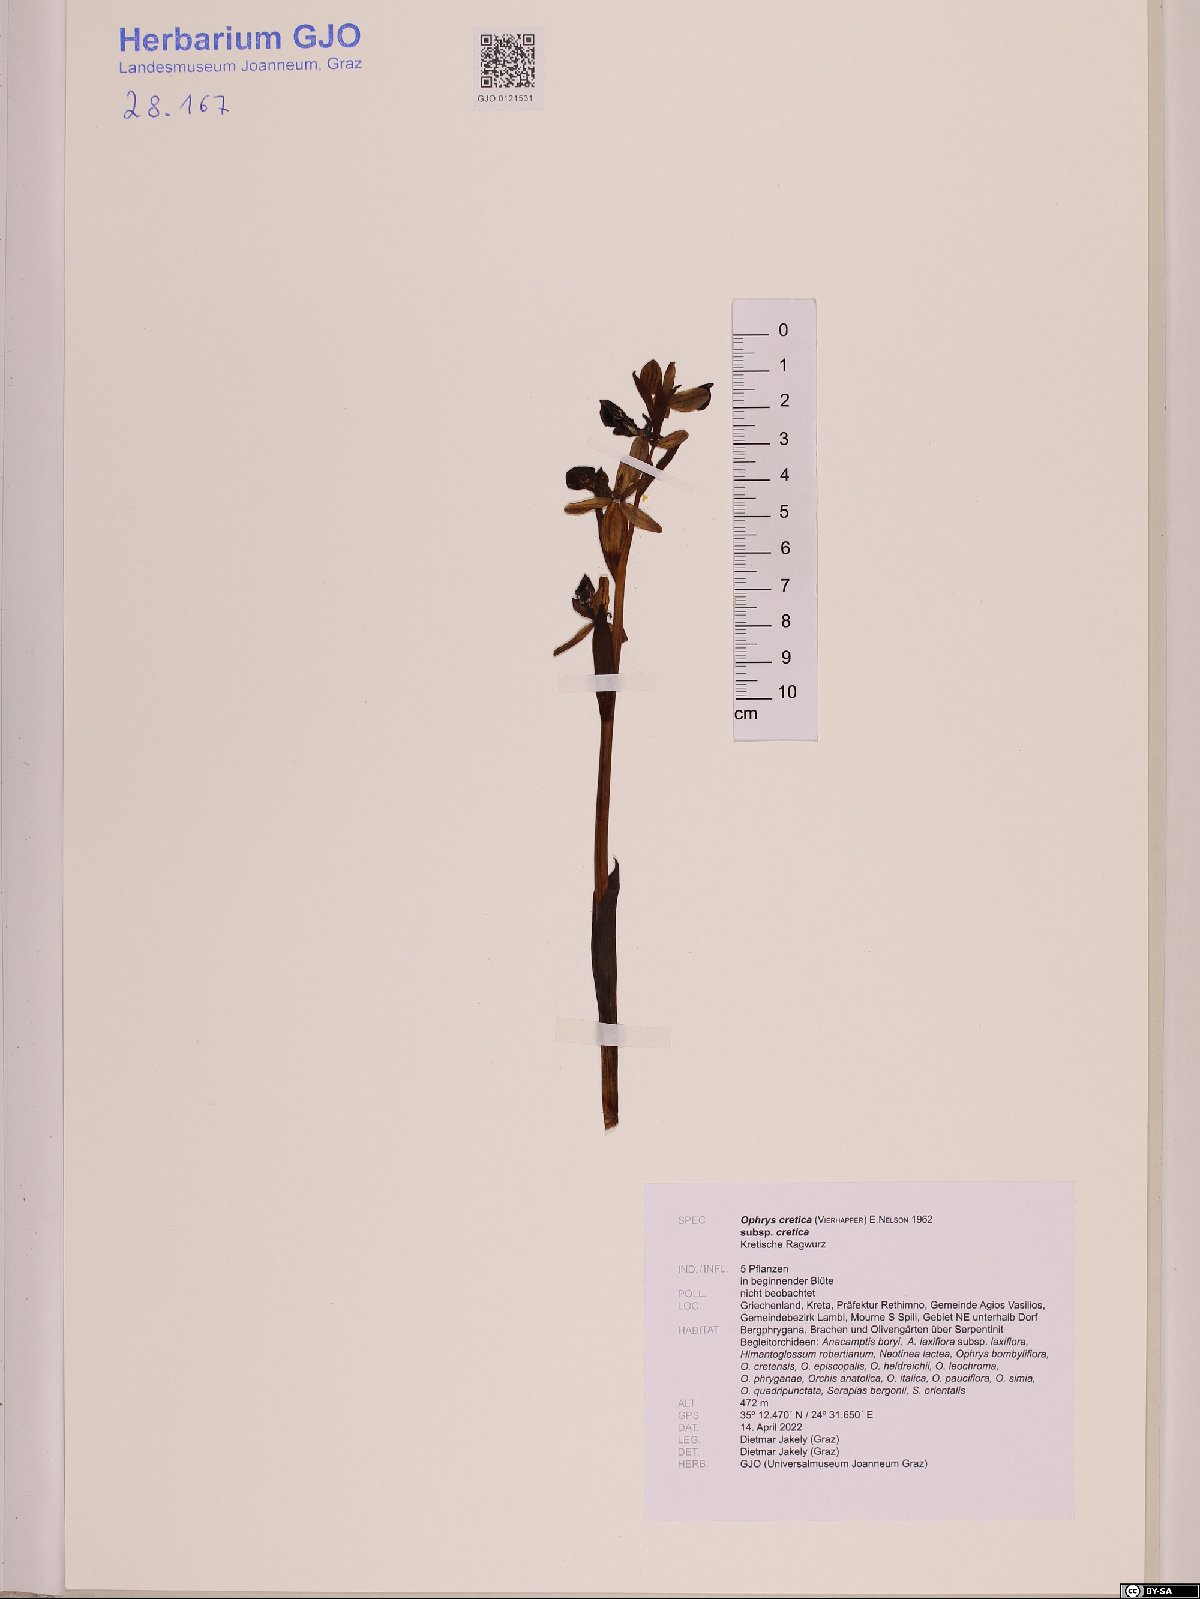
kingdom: Plantae
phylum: Tracheophyta
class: Liliopsida
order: Asparagales
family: Orchidaceae
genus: Ophrys
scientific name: Ophrys cretica
